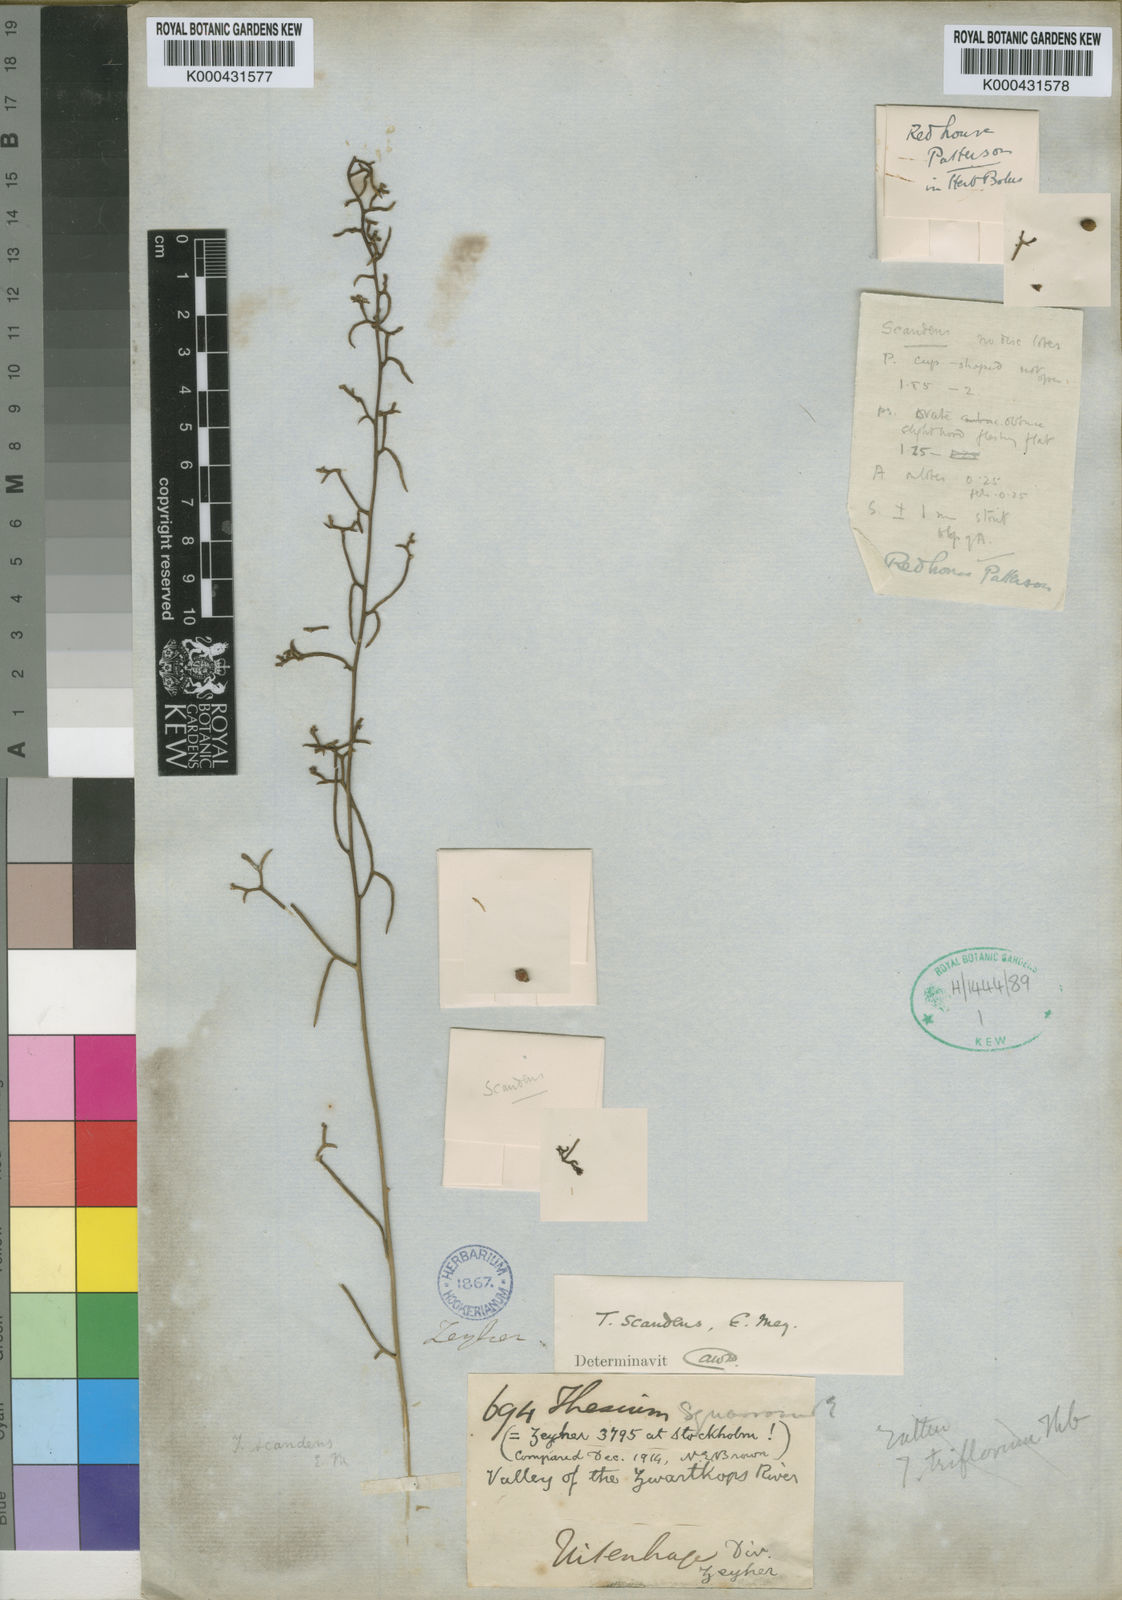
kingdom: Plantae
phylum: Tracheophyta
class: Magnoliopsida
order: Santalales
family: Thesiaceae
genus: Thesium
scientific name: Thesium
